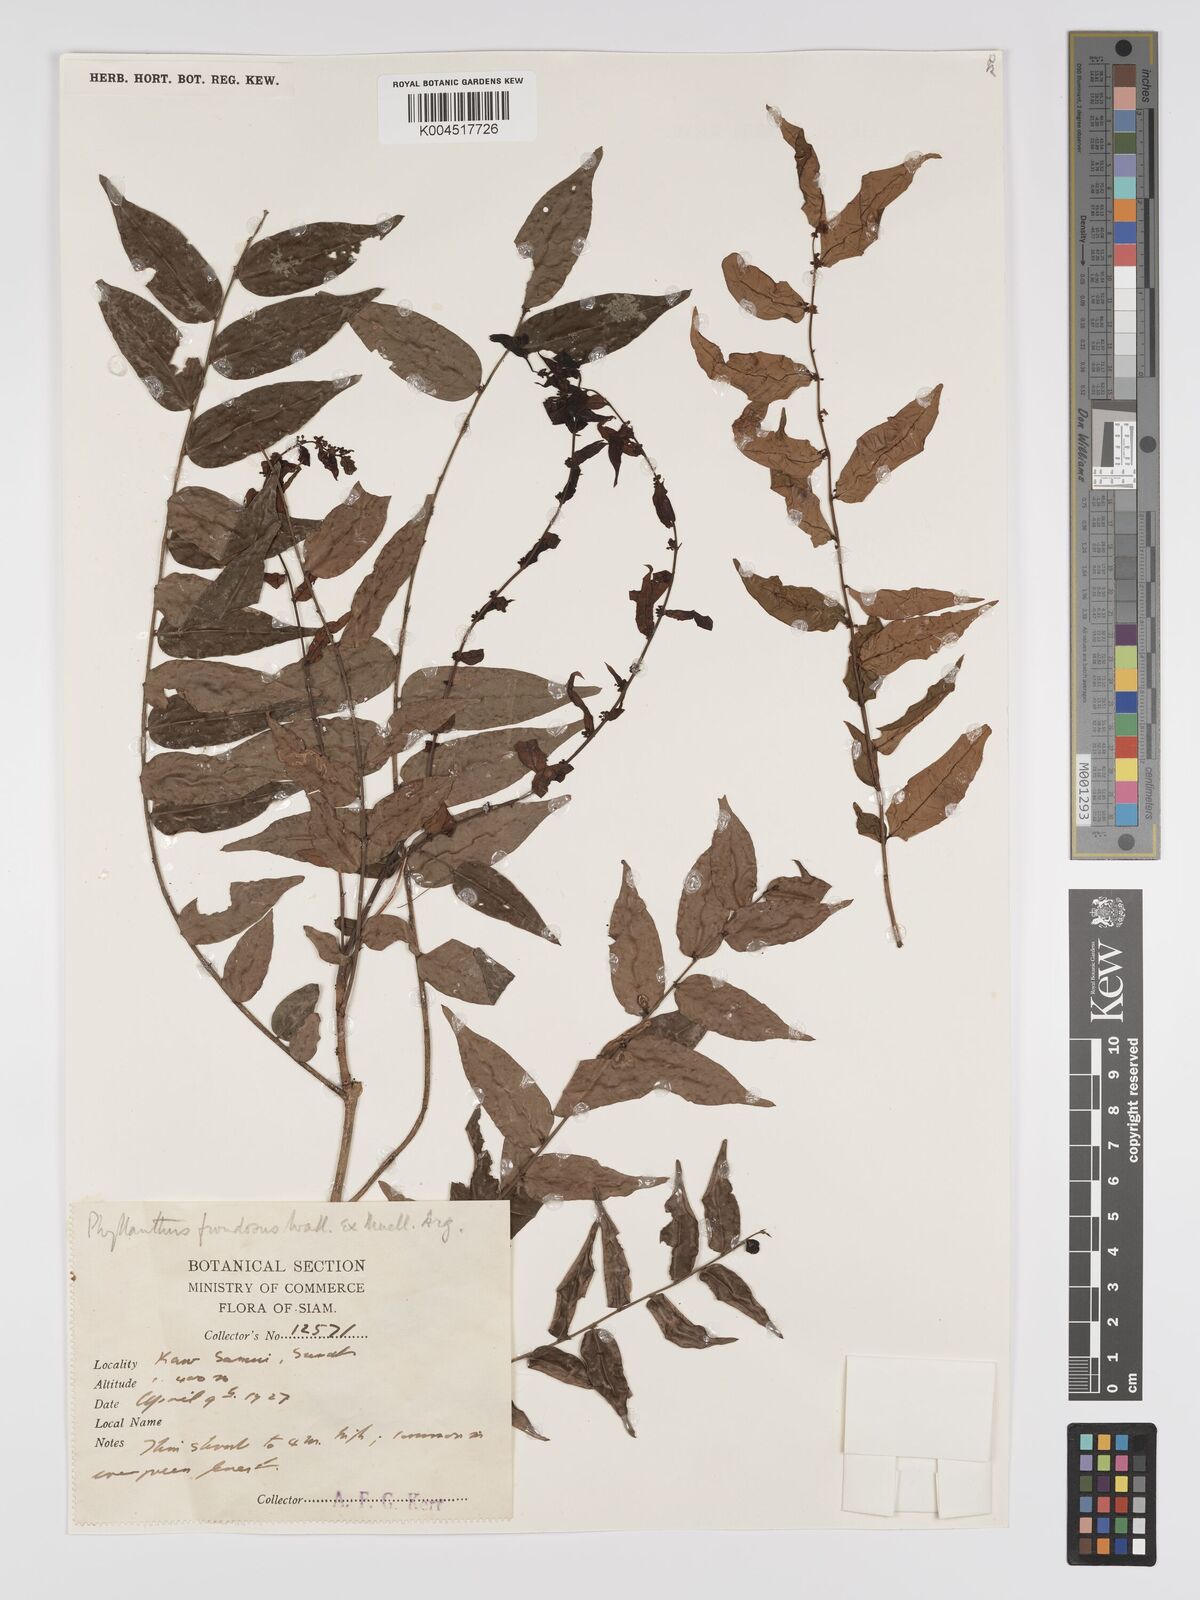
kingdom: Plantae
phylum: Tracheophyta
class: Magnoliopsida
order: Malpighiales
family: Phyllanthaceae
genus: Phyllanthus
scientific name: Phyllanthus
